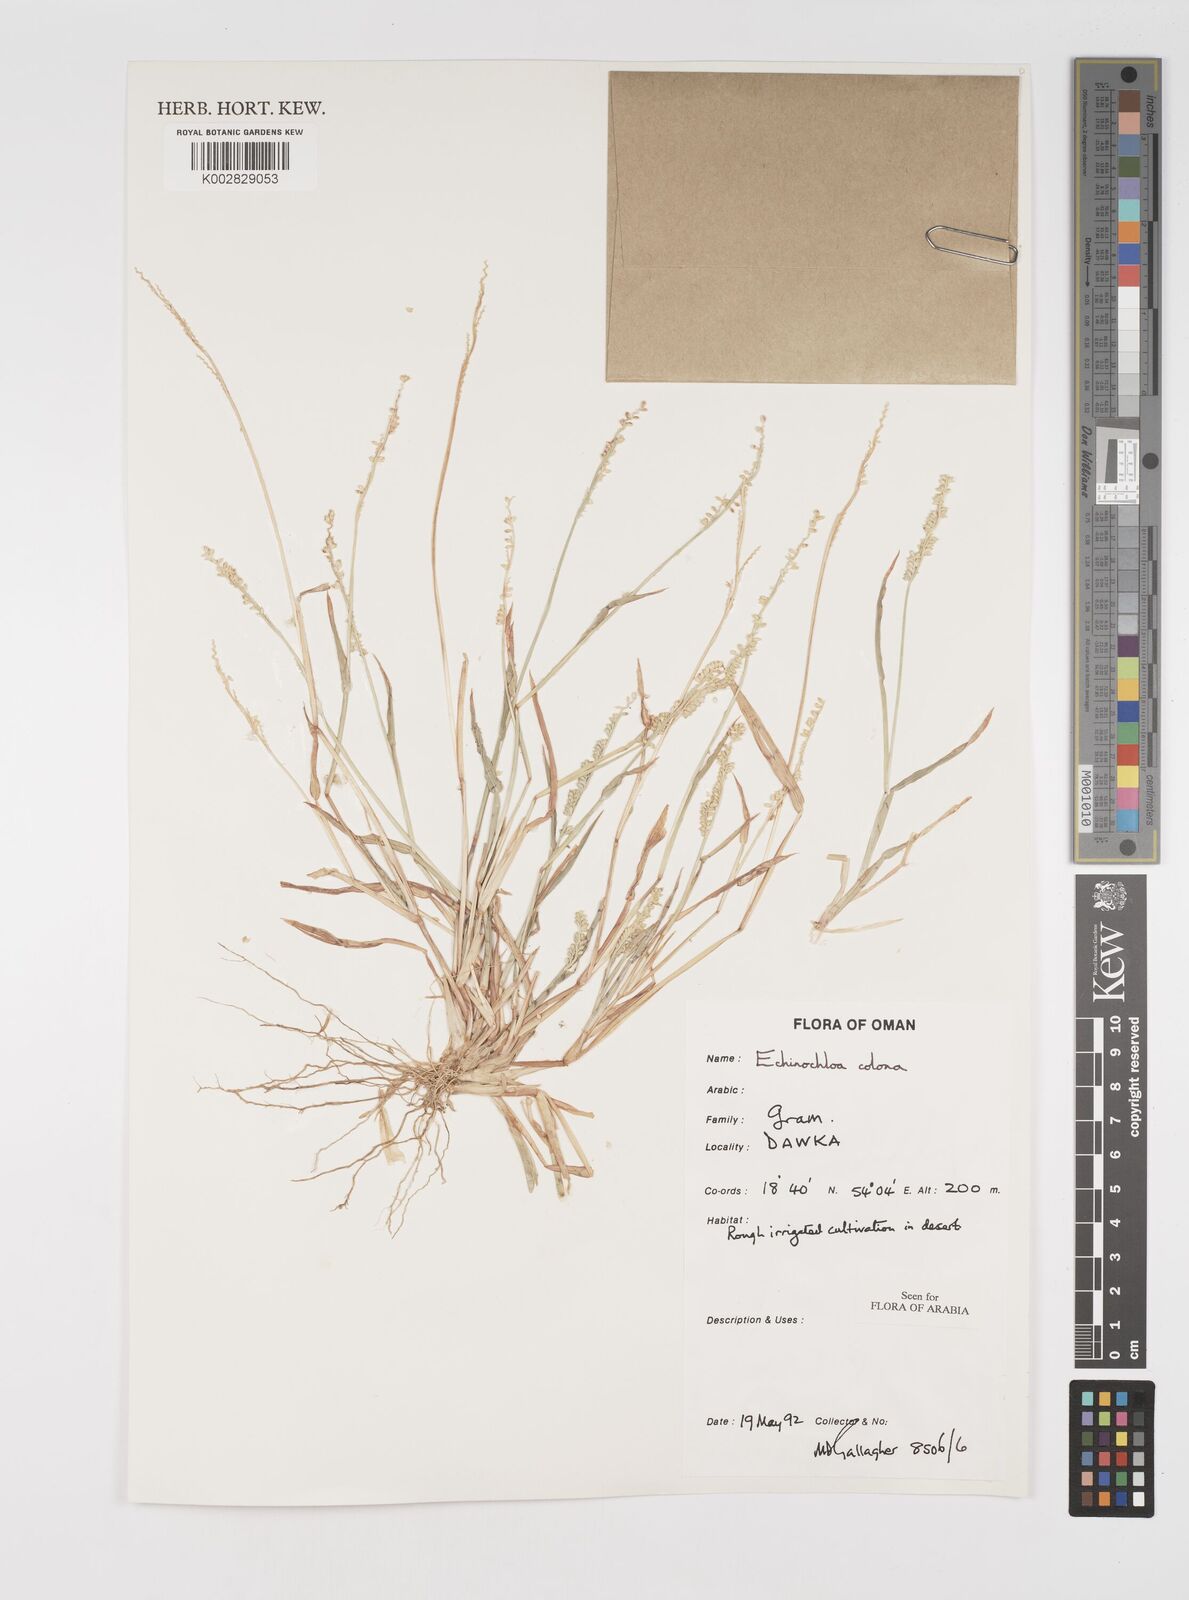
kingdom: Plantae
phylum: Tracheophyta
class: Liliopsida
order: Poales
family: Poaceae
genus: Echinochloa
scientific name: Echinochloa colonum
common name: Jungle rice
